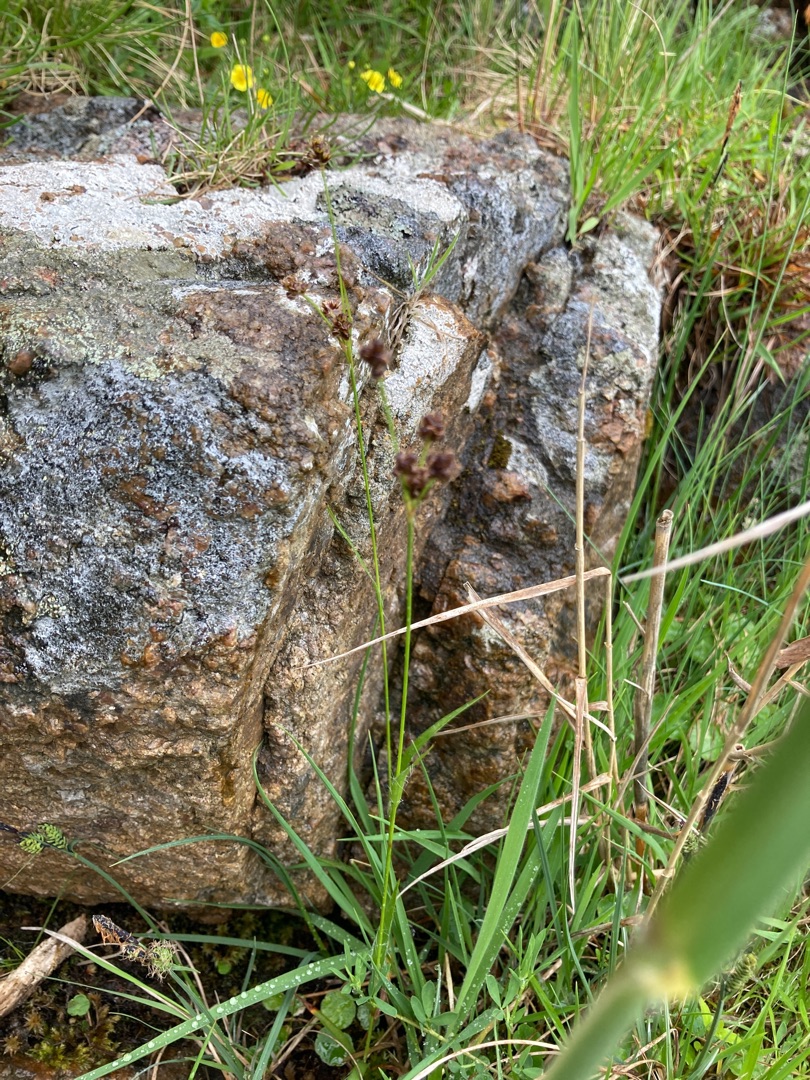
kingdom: Plantae
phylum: Tracheophyta
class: Liliopsida
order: Poales
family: Juncaceae
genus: Luzula
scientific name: Luzula multiflora
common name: Mangeblomstret frytle
